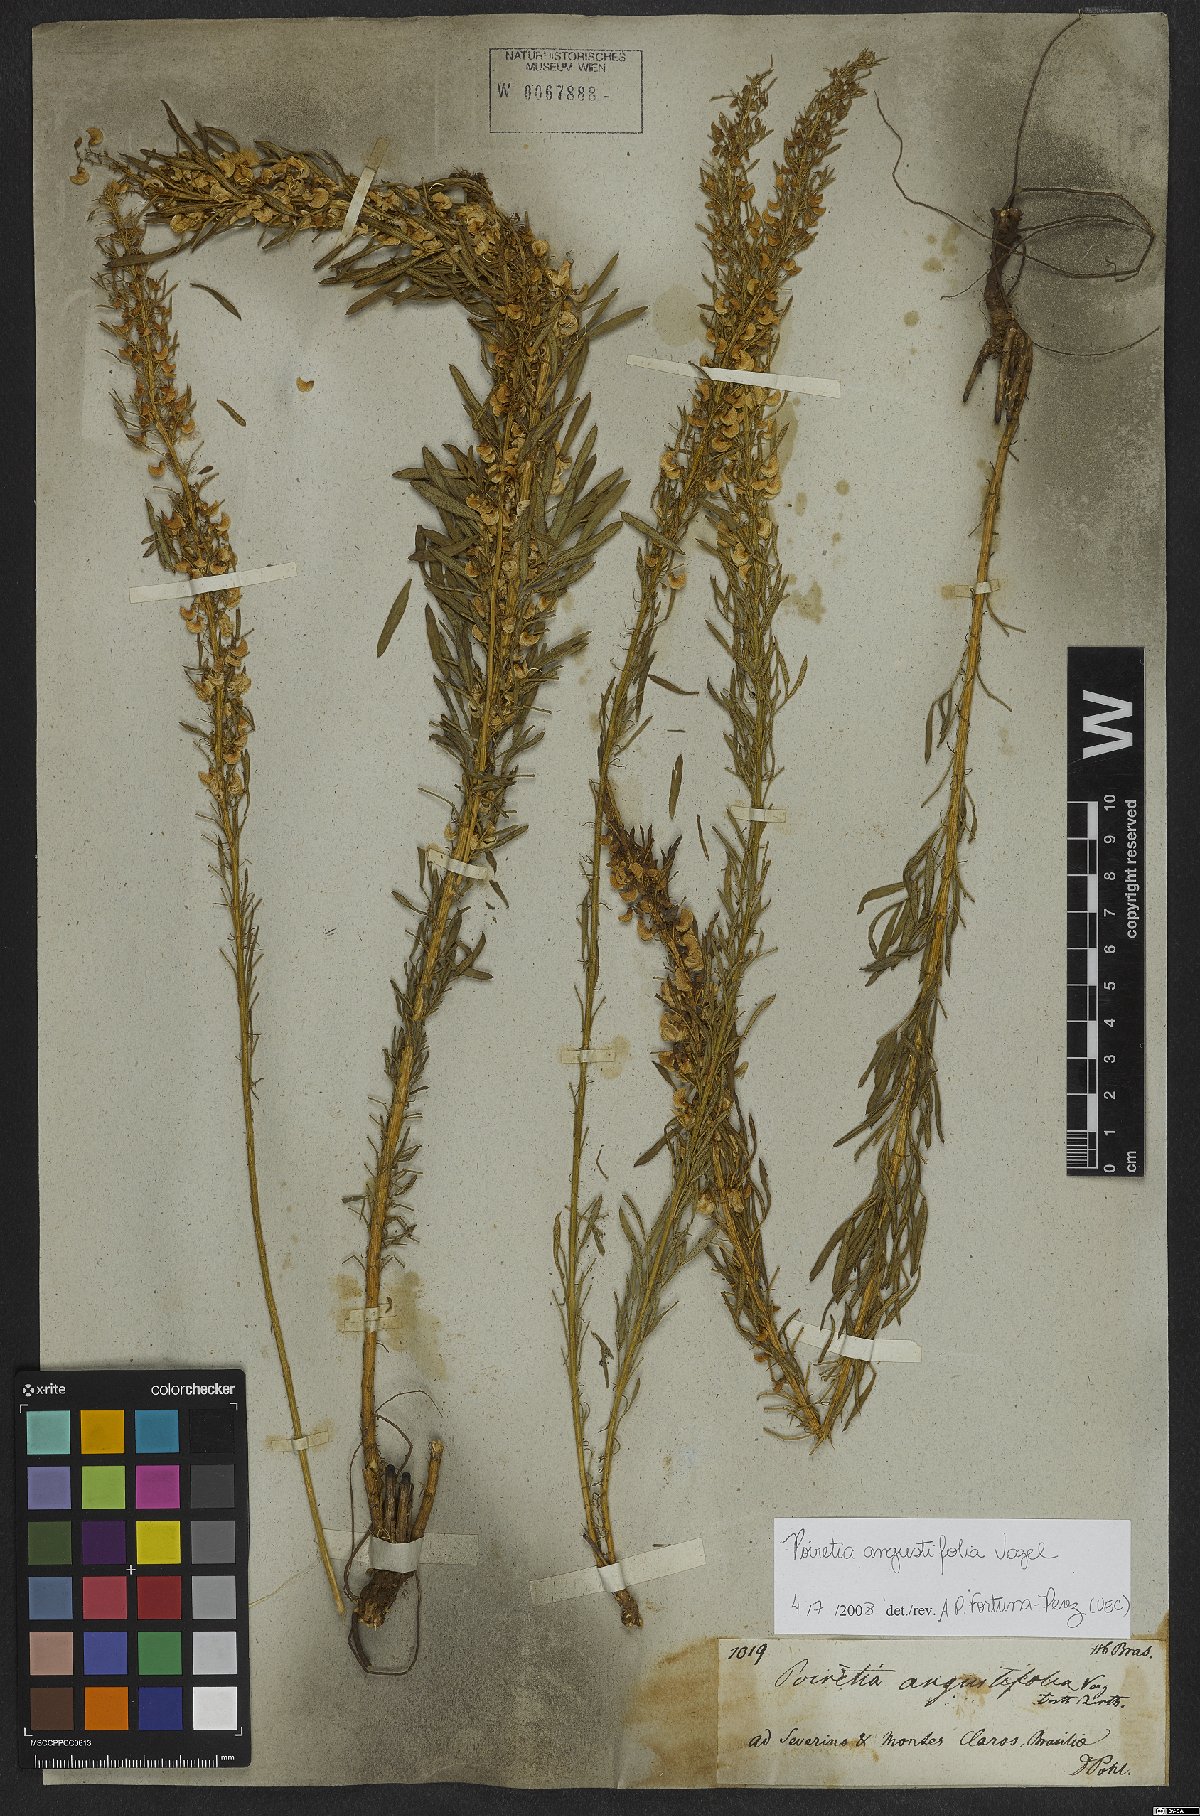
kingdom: Plantae
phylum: Tracheophyta
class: Magnoliopsida
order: Fabales
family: Fabaceae
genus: Poiretia
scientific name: Poiretia angustifolia
